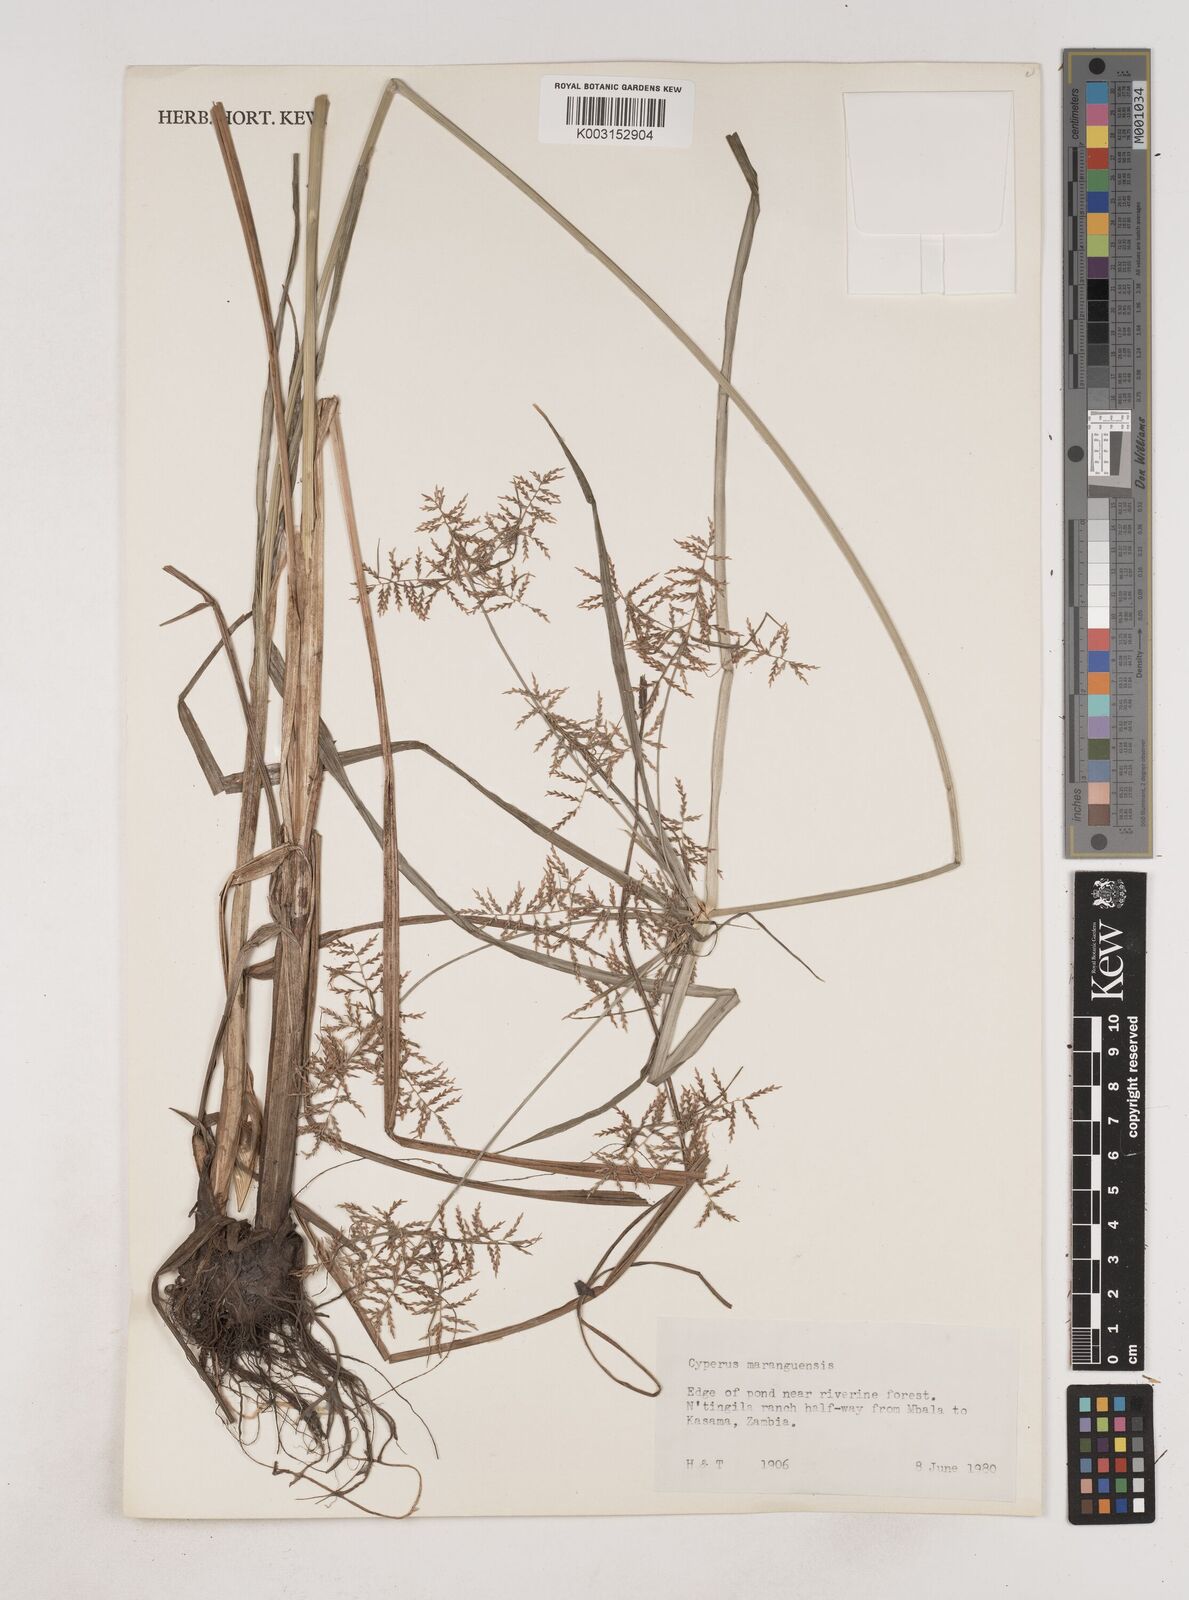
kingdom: Plantae
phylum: Tracheophyta
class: Liliopsida
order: Poales
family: Cyperaceae
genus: Cyperus
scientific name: Cyperus maranguensis
